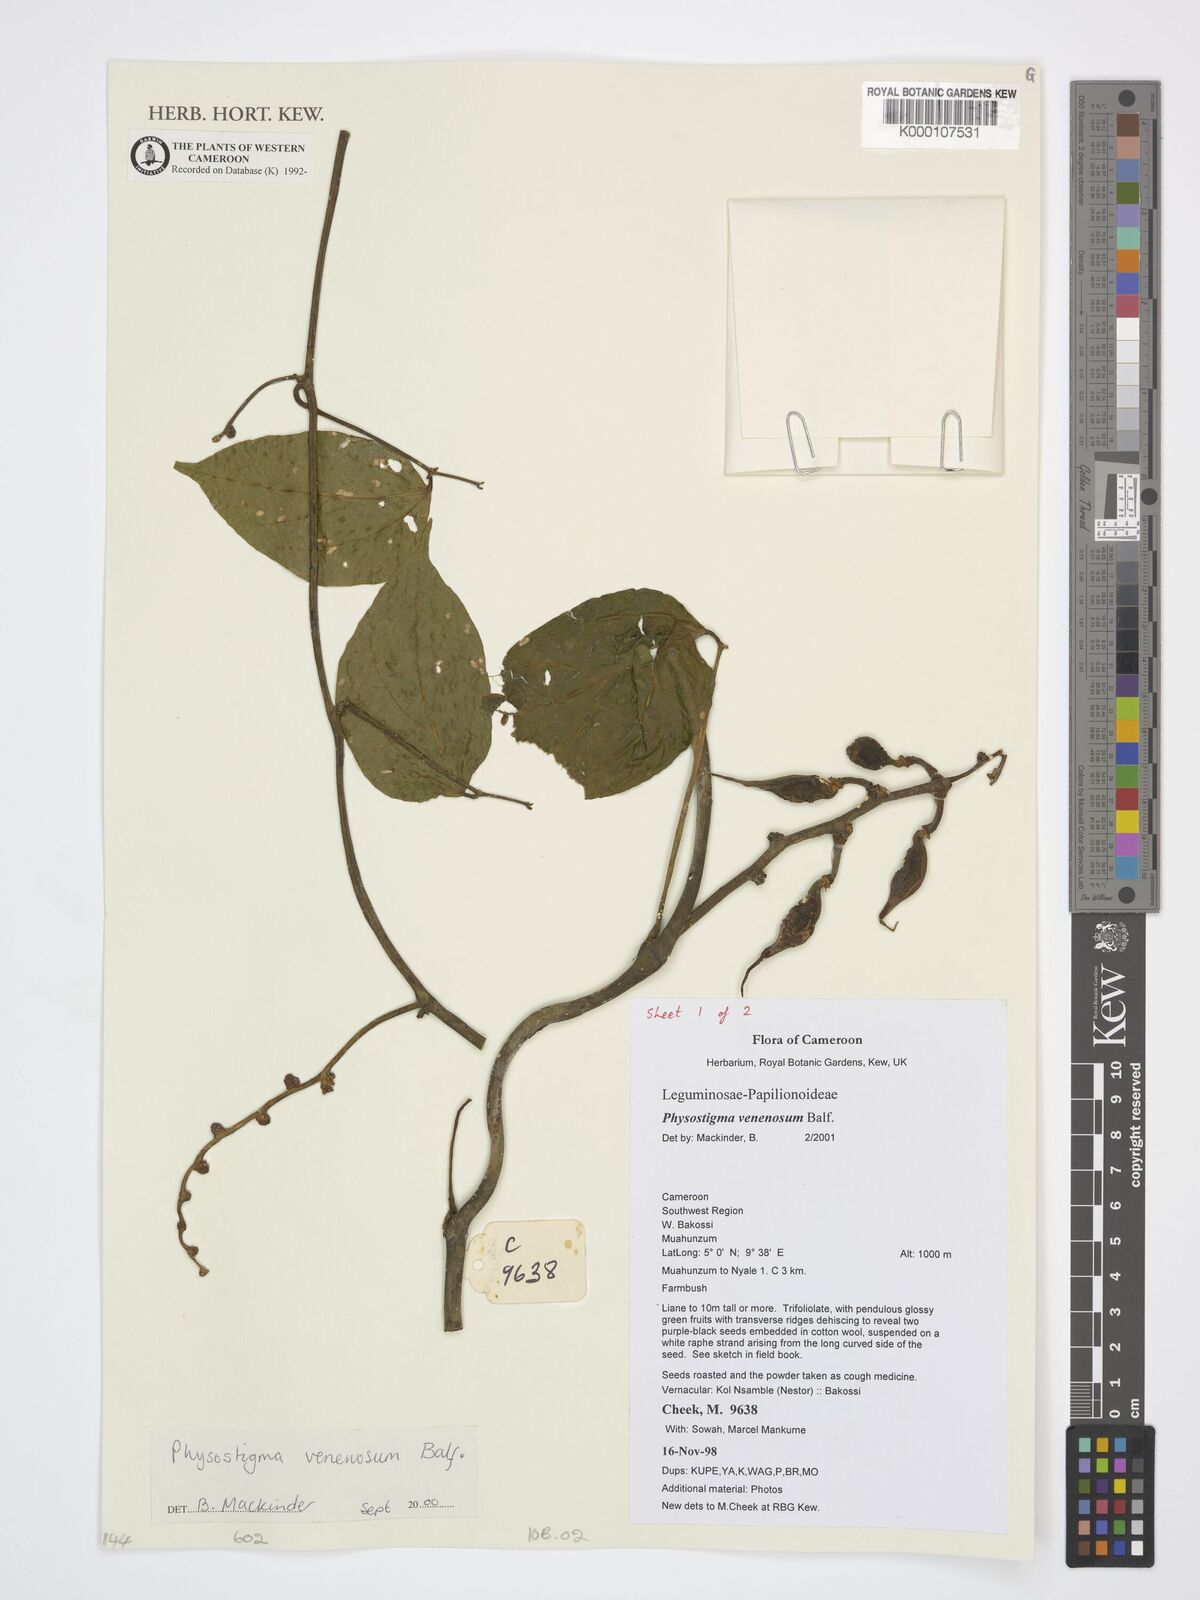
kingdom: Plantae
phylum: Tracheophyta
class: Magnoliopsida
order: Fabales
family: Fabaceae
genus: Physostigma
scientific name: Physostigma venenosum
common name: Calabar-bean
